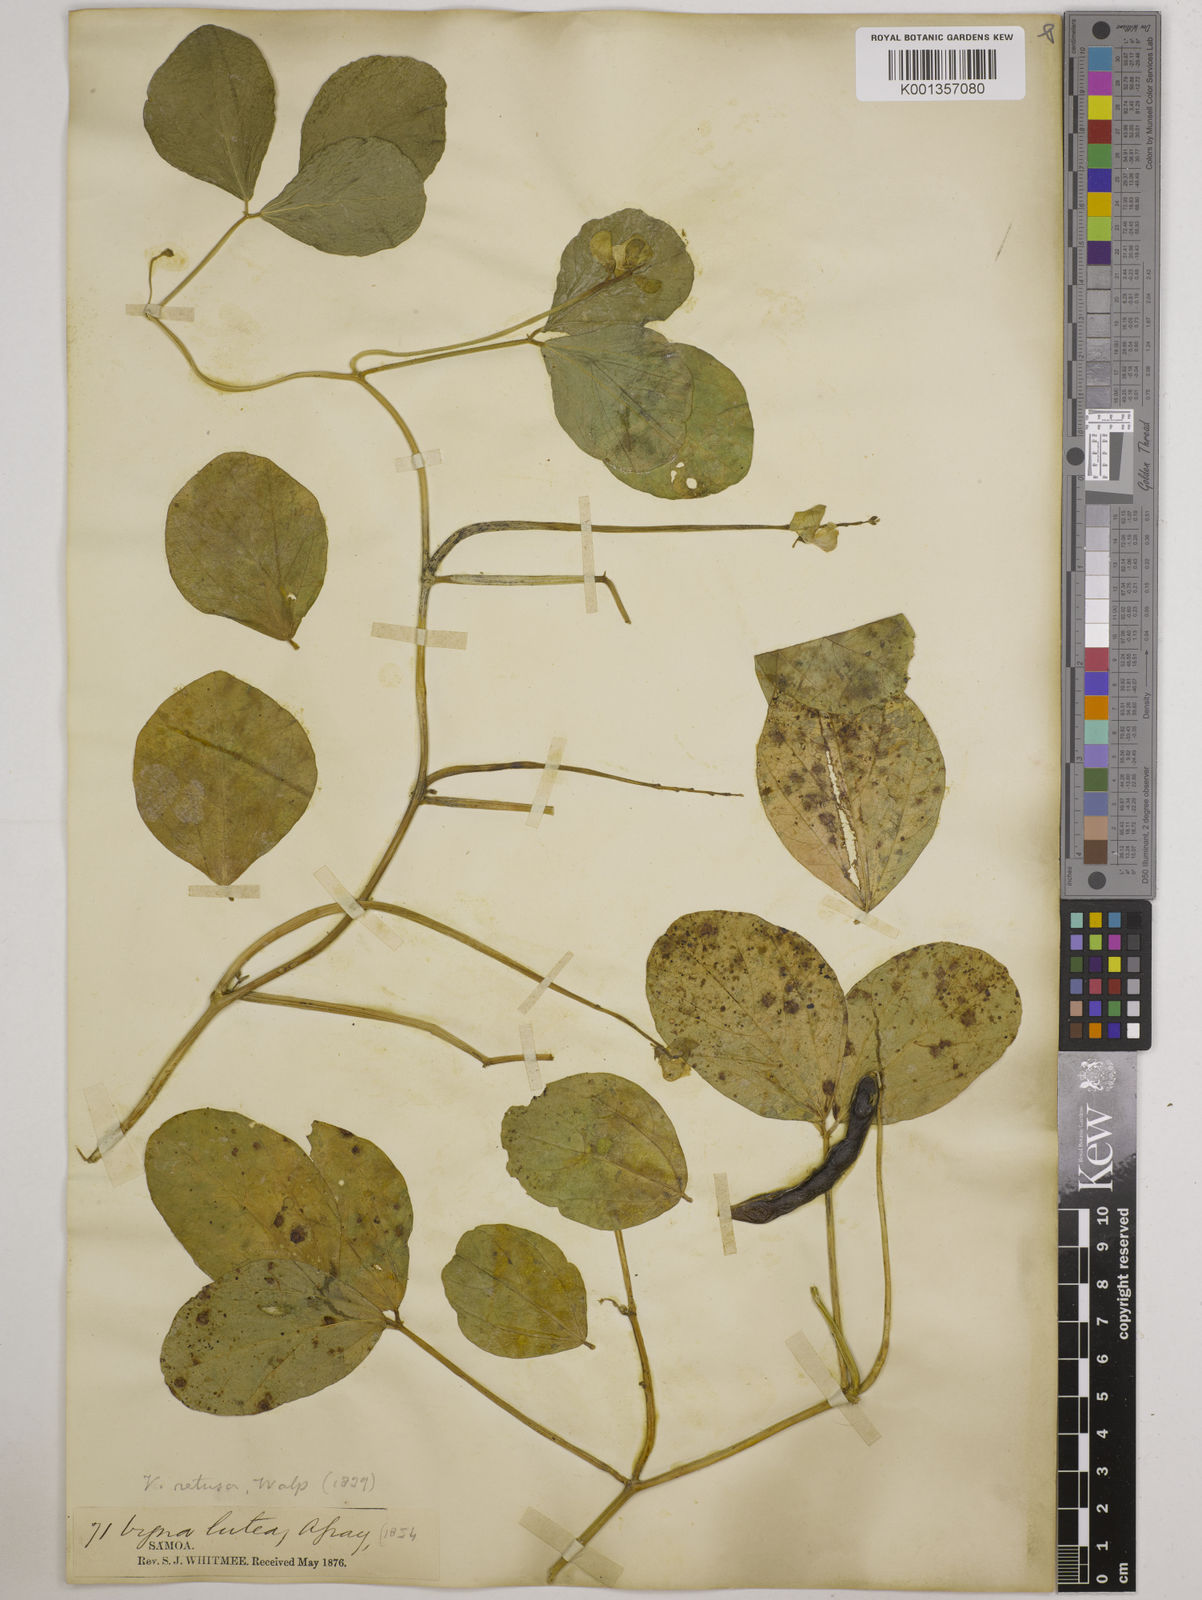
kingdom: Plantae
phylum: Tracheophyta
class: Magnoliopsida
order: Fabales
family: Fabaceae
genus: Vigna
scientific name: Vigna marina
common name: Dune-bean
